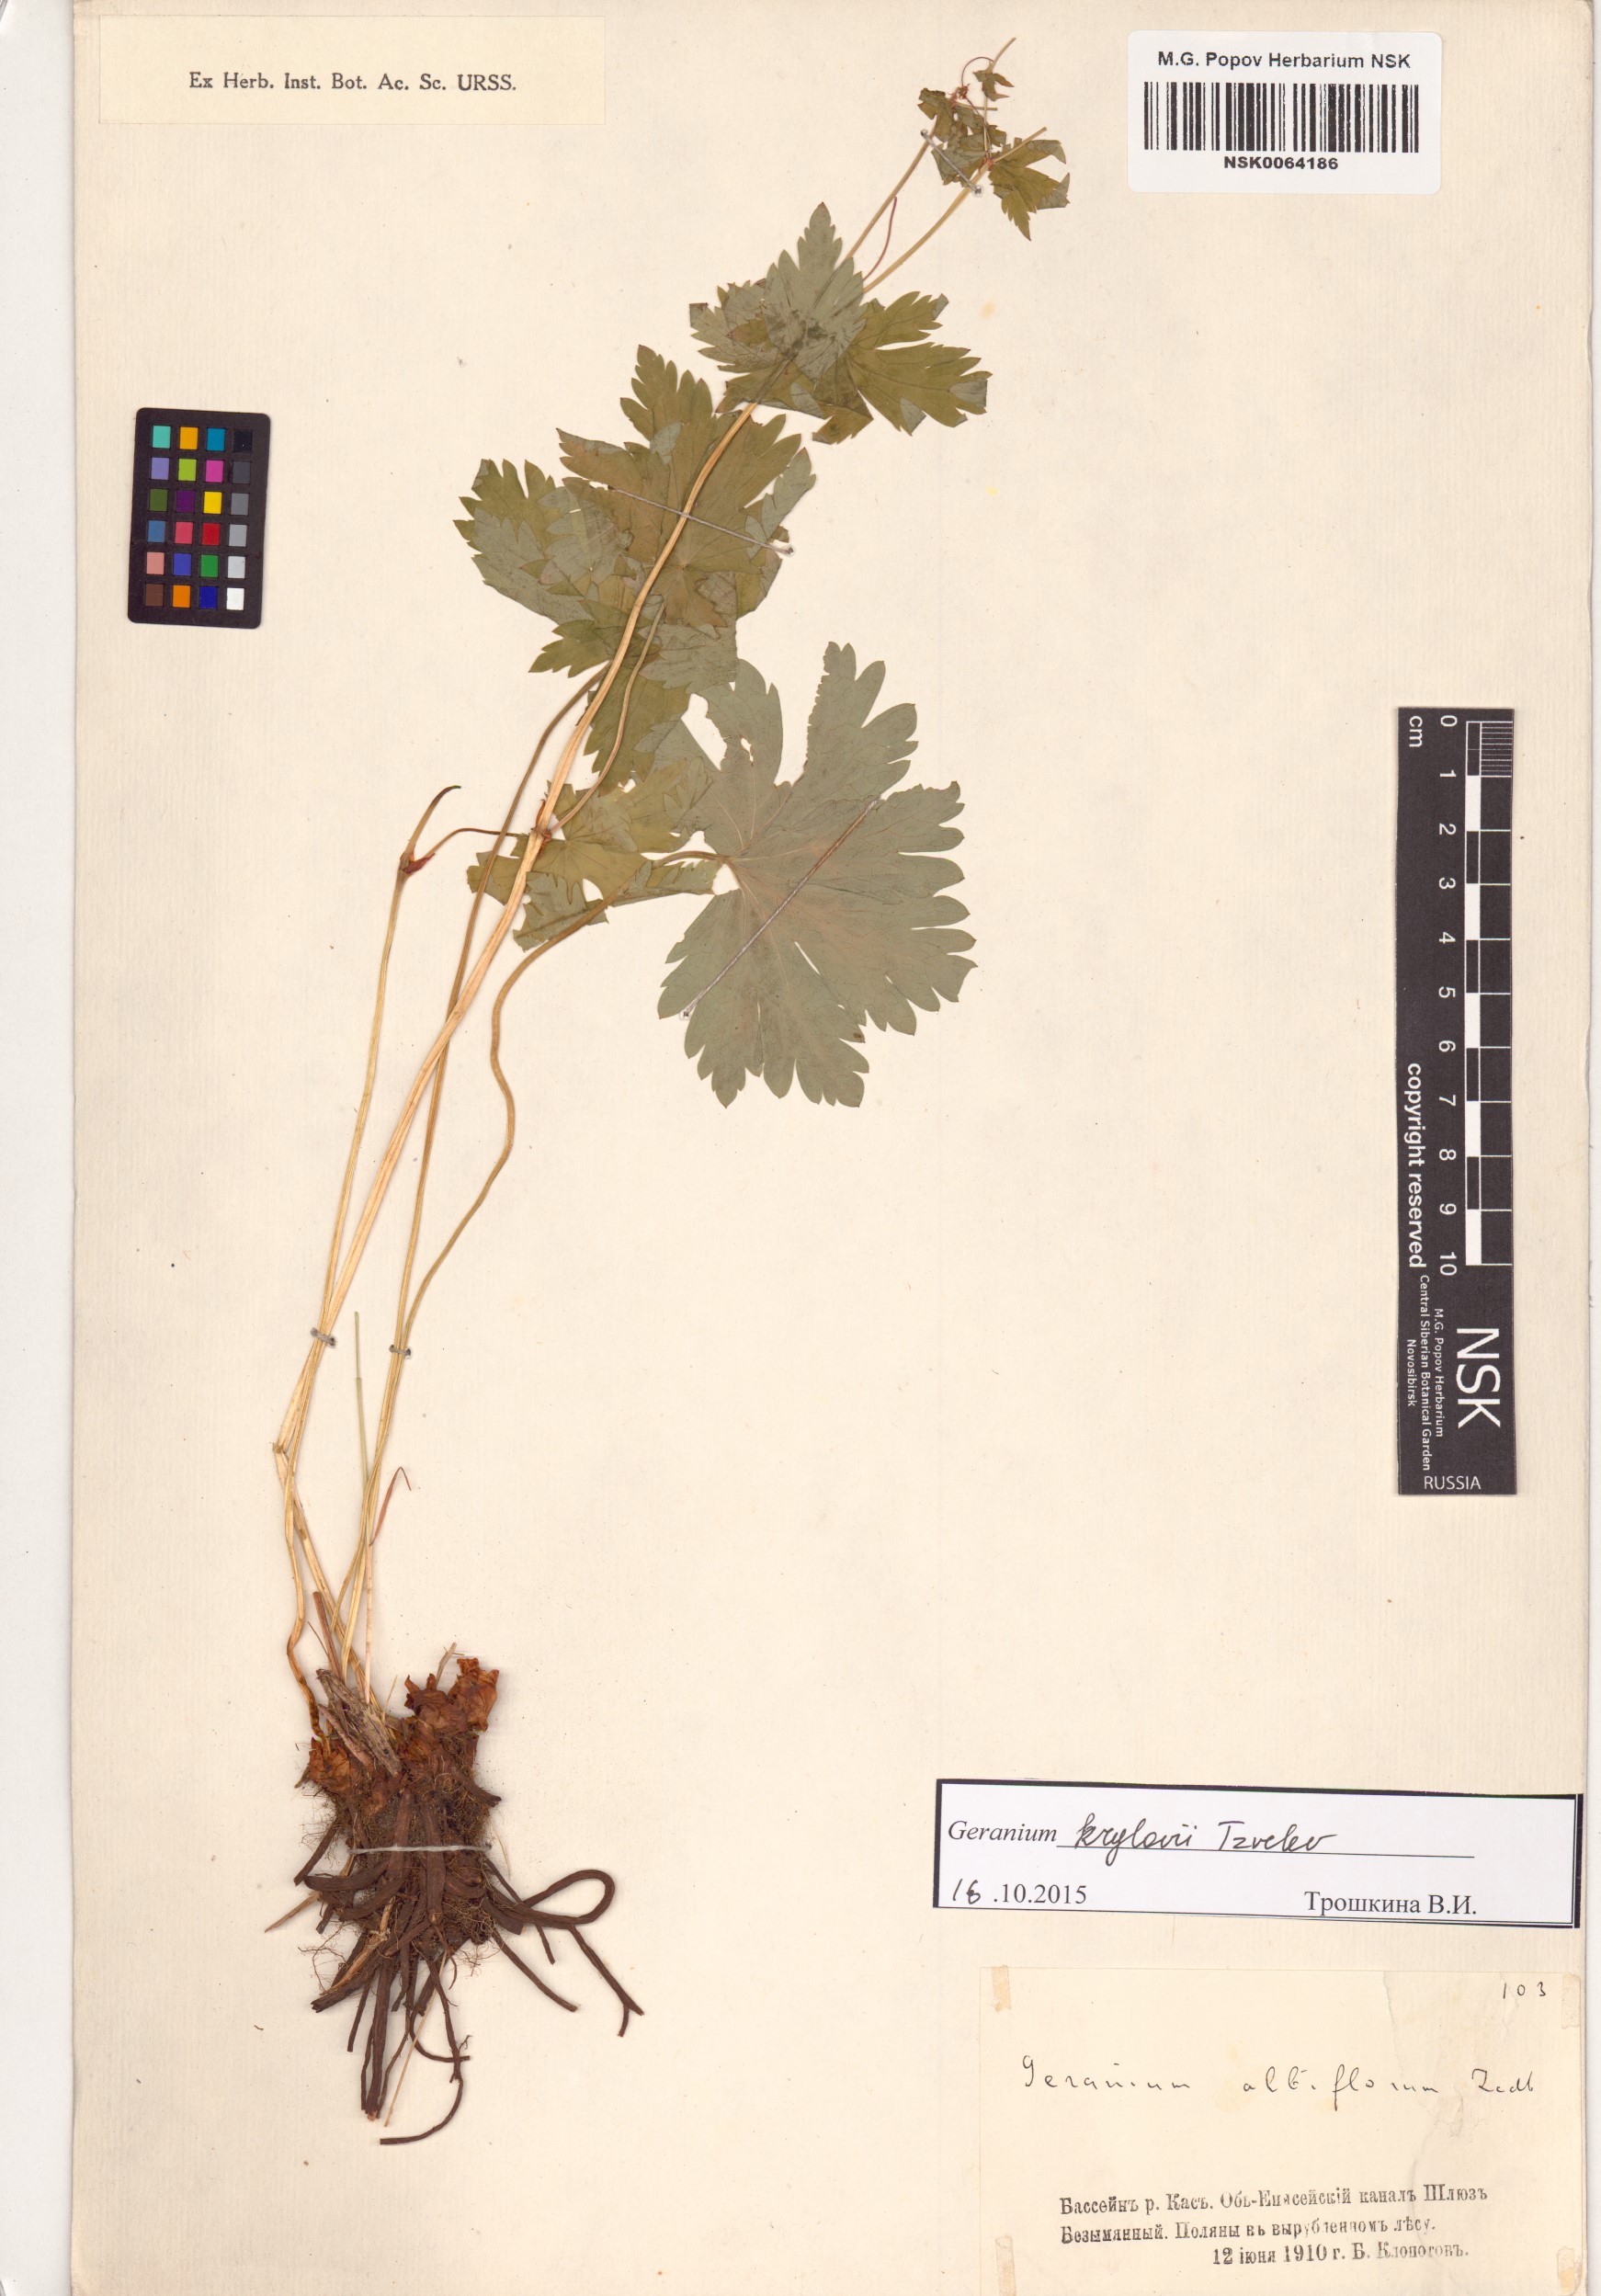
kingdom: Plantae
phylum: Tracheophyta
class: Magnoliopsida
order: Geraniales
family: Geraniaceae
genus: Geranium
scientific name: Geranium sylvaticum
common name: Wood crane's-bill
